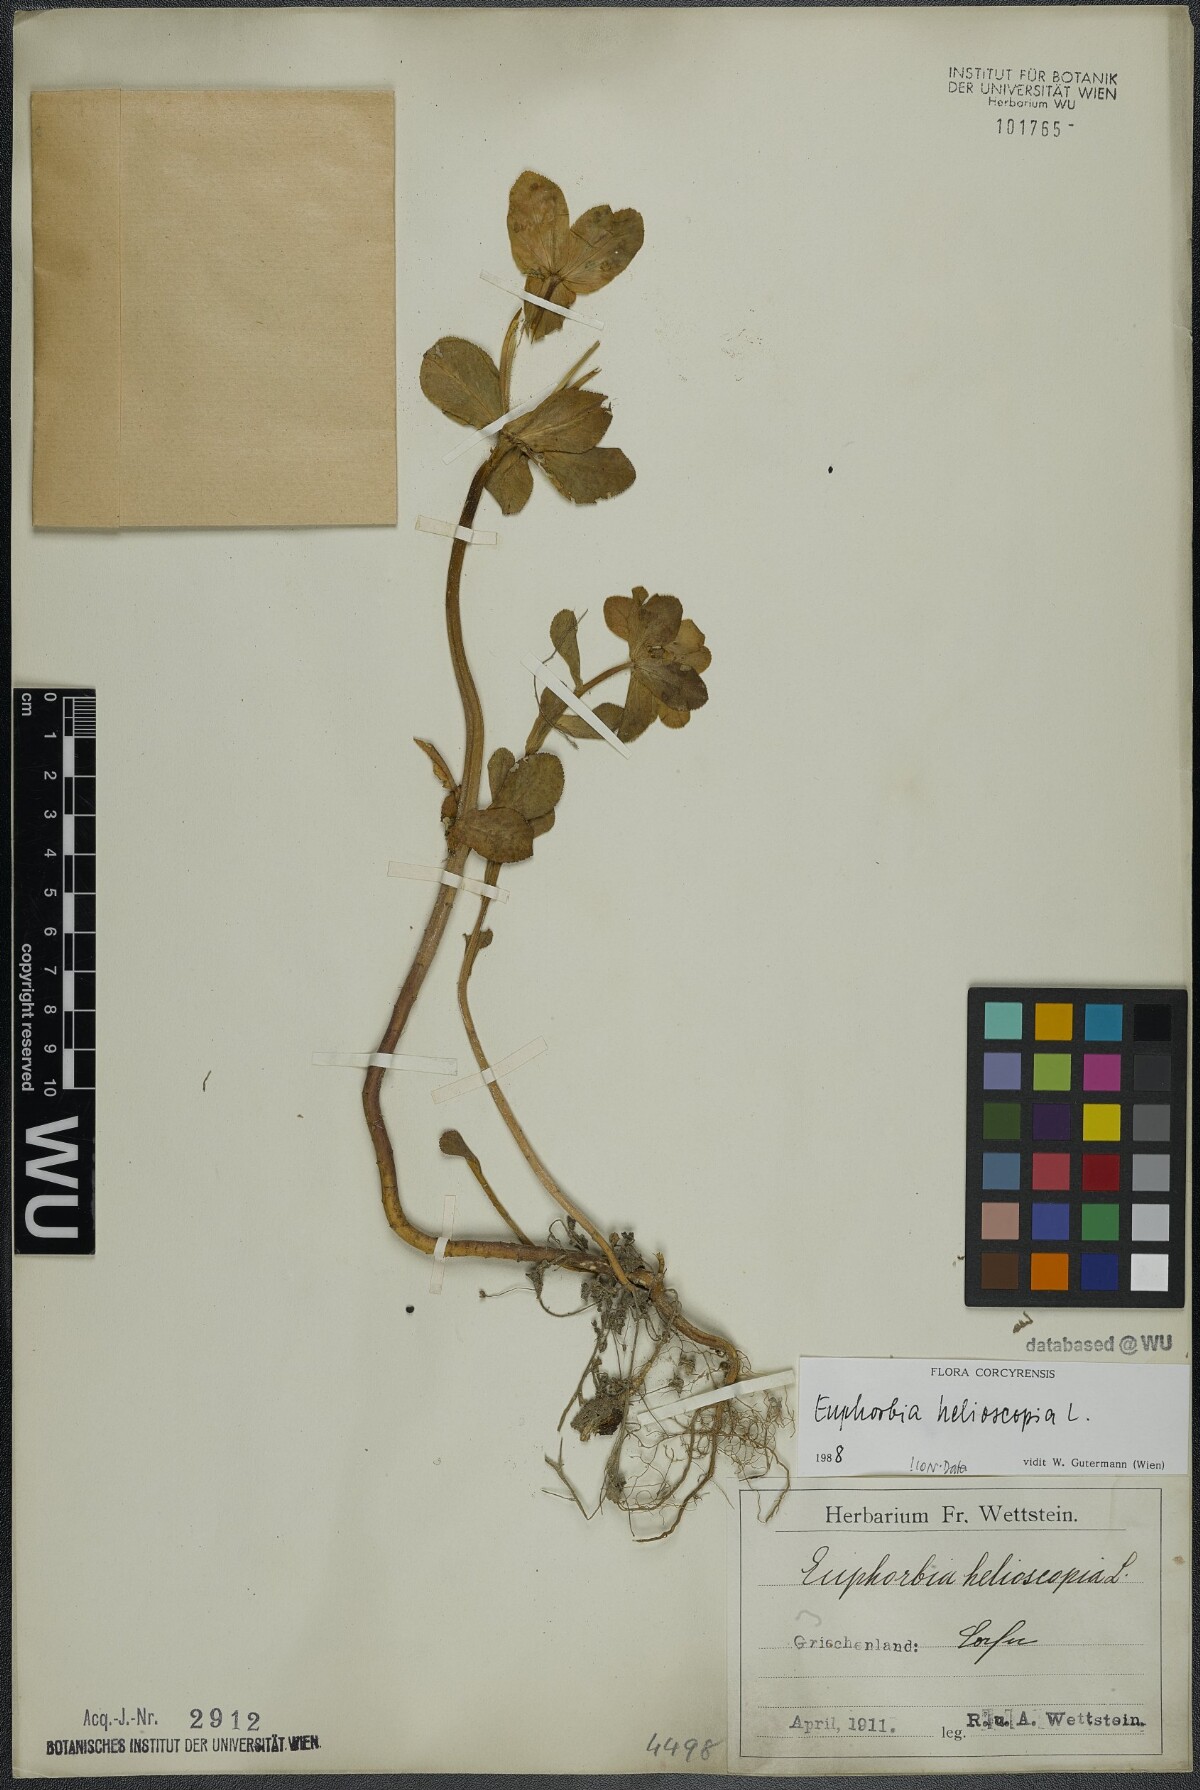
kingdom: Plantae
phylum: Tracheophyta
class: Magnoliopsida
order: Malpighiales
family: Euphorbiaceae
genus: Euphorbia
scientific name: Euphorbia helioscopia
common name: Sun spurge
